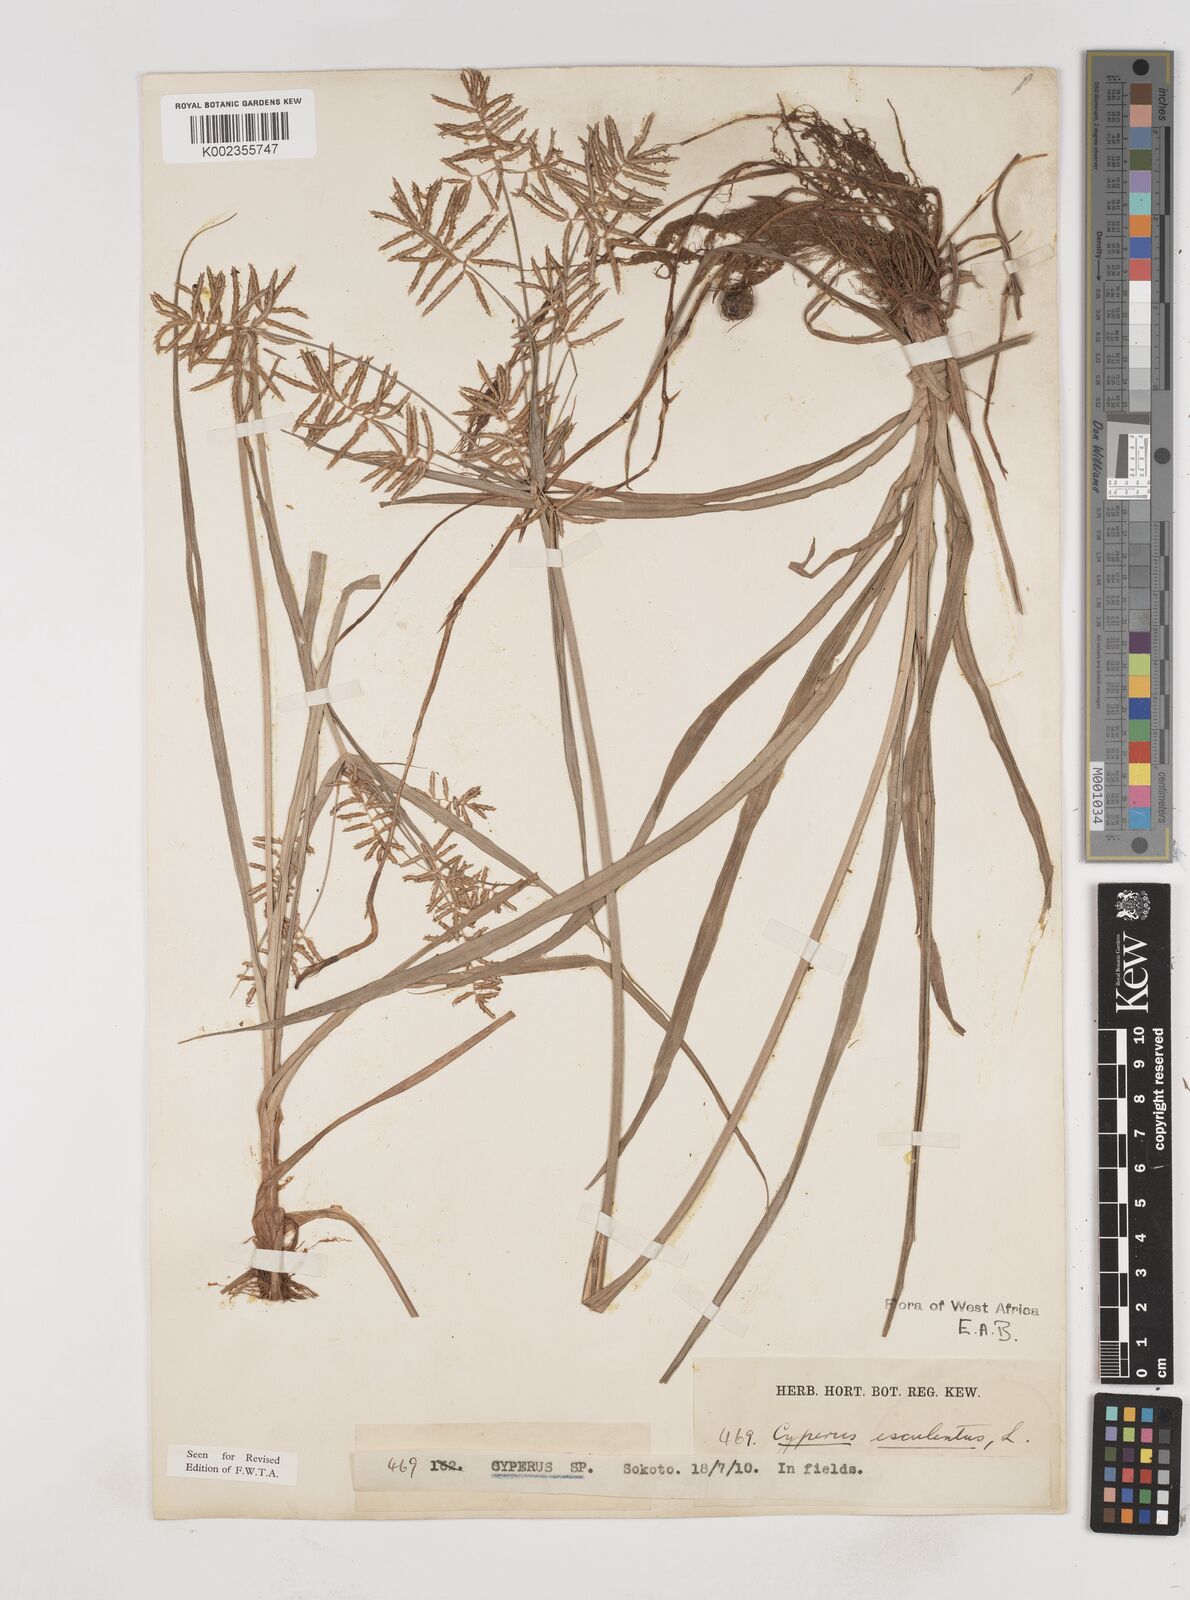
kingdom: Plantae
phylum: Tracheophyta
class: Liliopsida
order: Poales
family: Cyperaceae
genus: Cyperus
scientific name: Cyperus esculentus
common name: Yellow nutsedge
